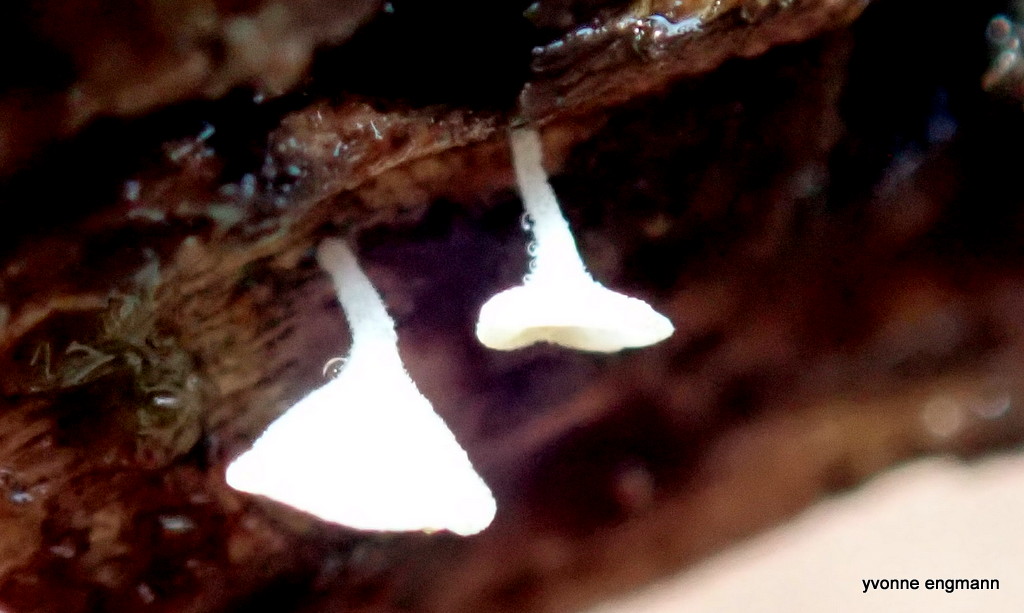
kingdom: Fungi
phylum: Ascomycota
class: Leotiomycetes
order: Helotiales
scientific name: Helotiales
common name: stilkskiveordenen
